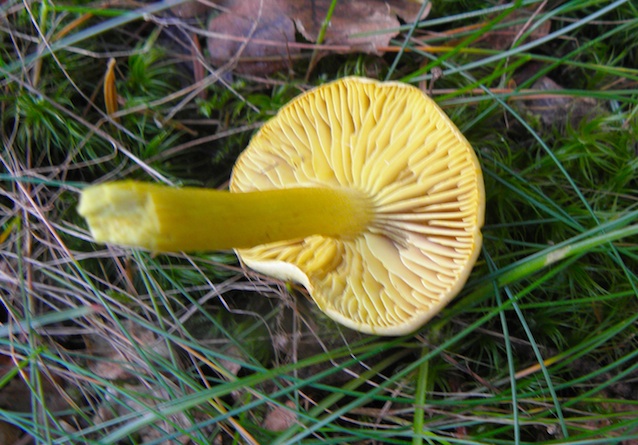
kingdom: Fungi
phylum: Basidiomycota
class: Agaricomycetes
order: Agaricales
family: Tricholomataceae
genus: Tricholoma
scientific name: Tricholoma sulphureum
